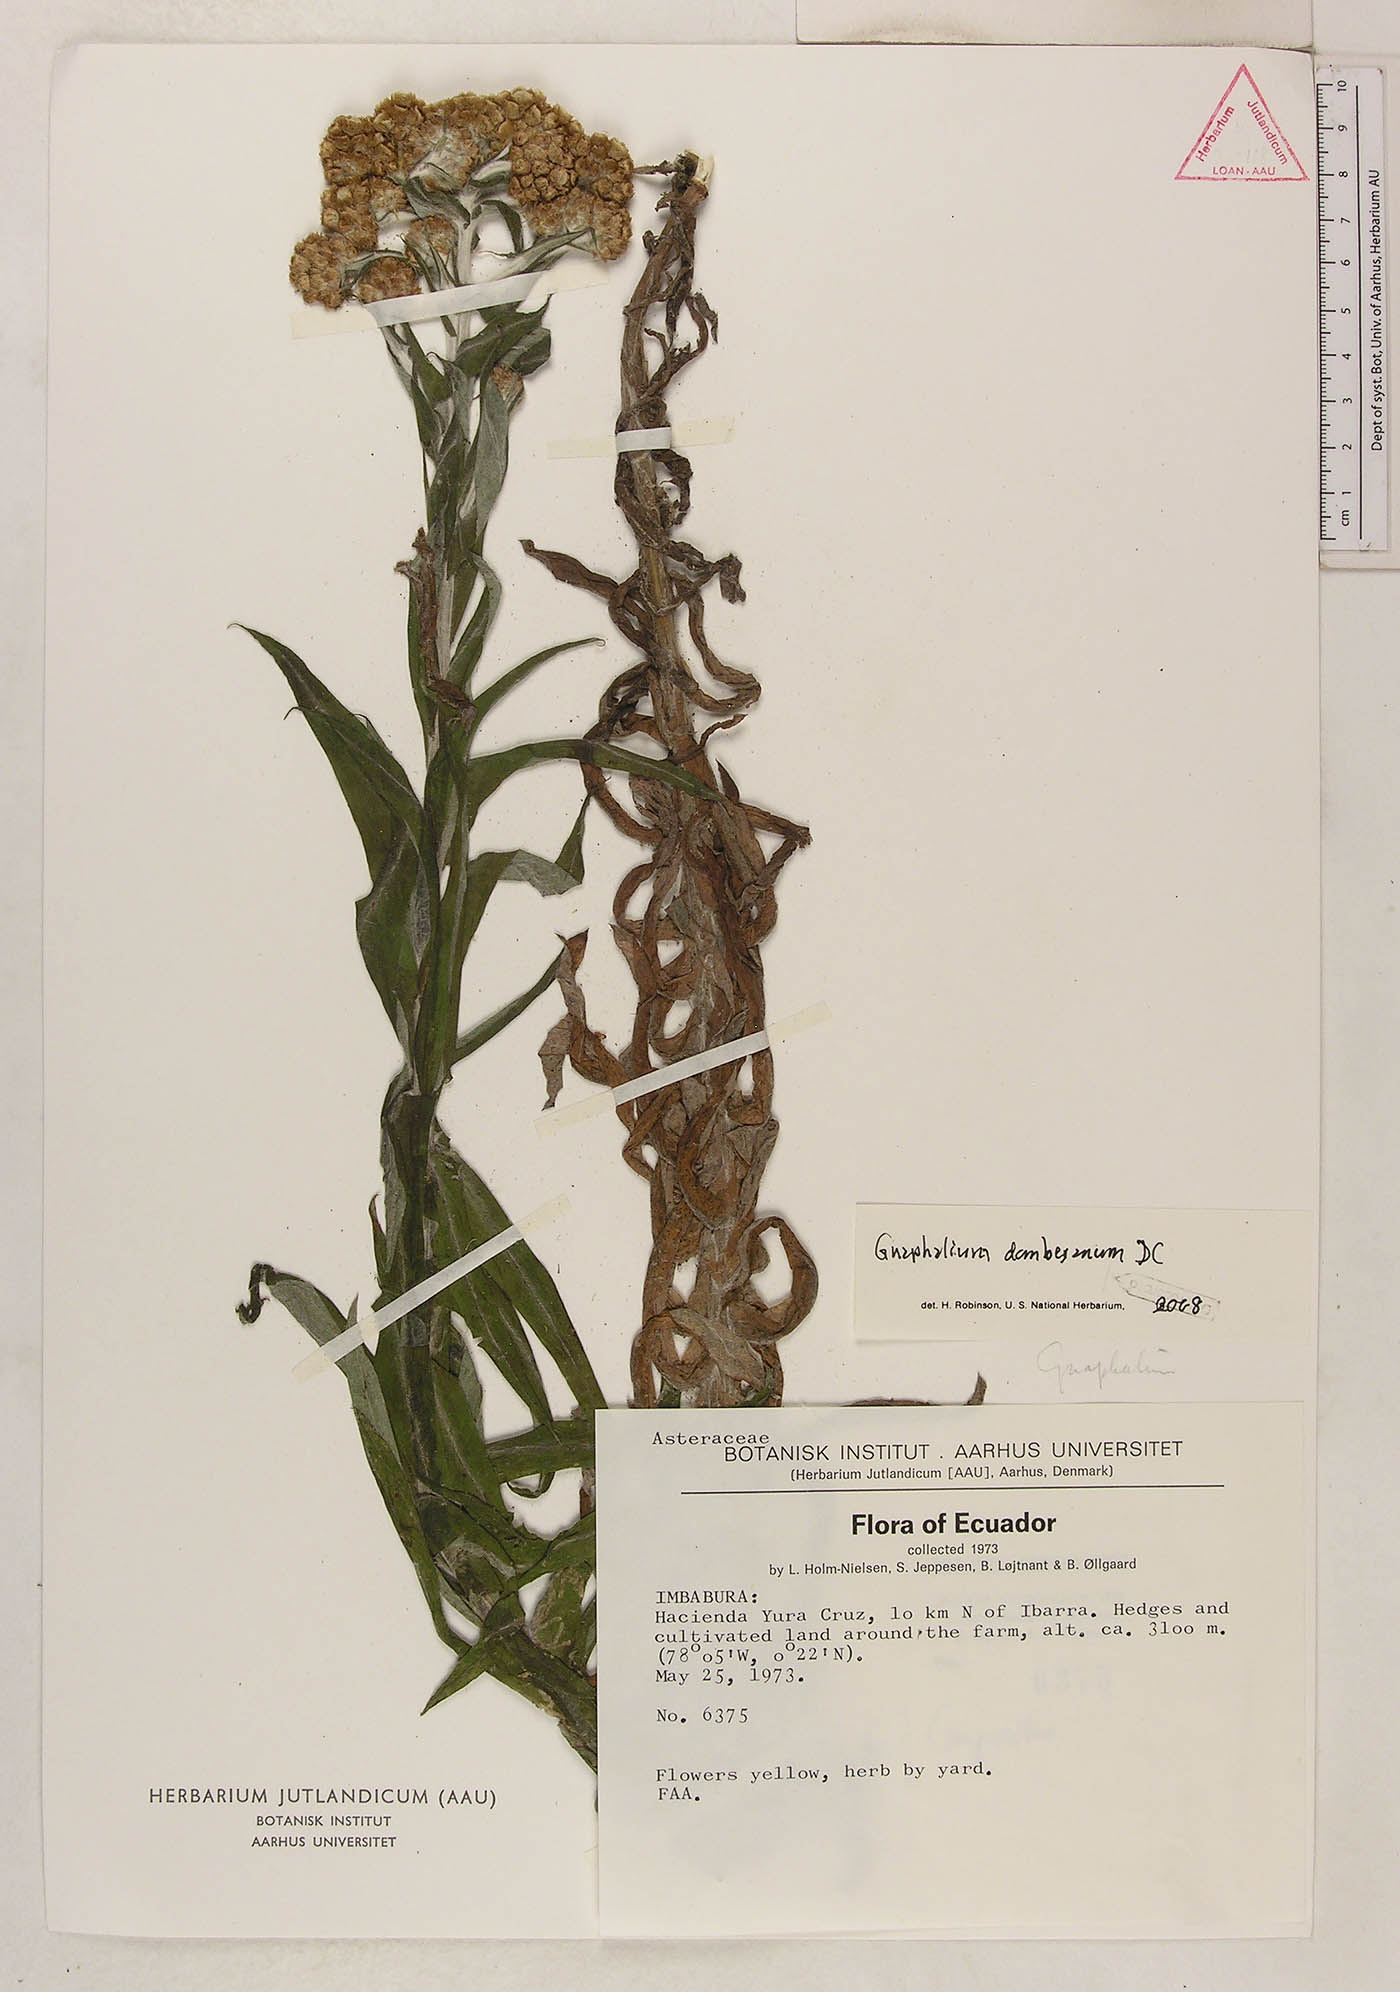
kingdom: Plantae
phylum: Tracheophyta
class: Magnoliopsida
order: Asterales
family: Asteraceae
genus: Pseudognaphalium
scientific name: Pseudognaphalium dysodes
